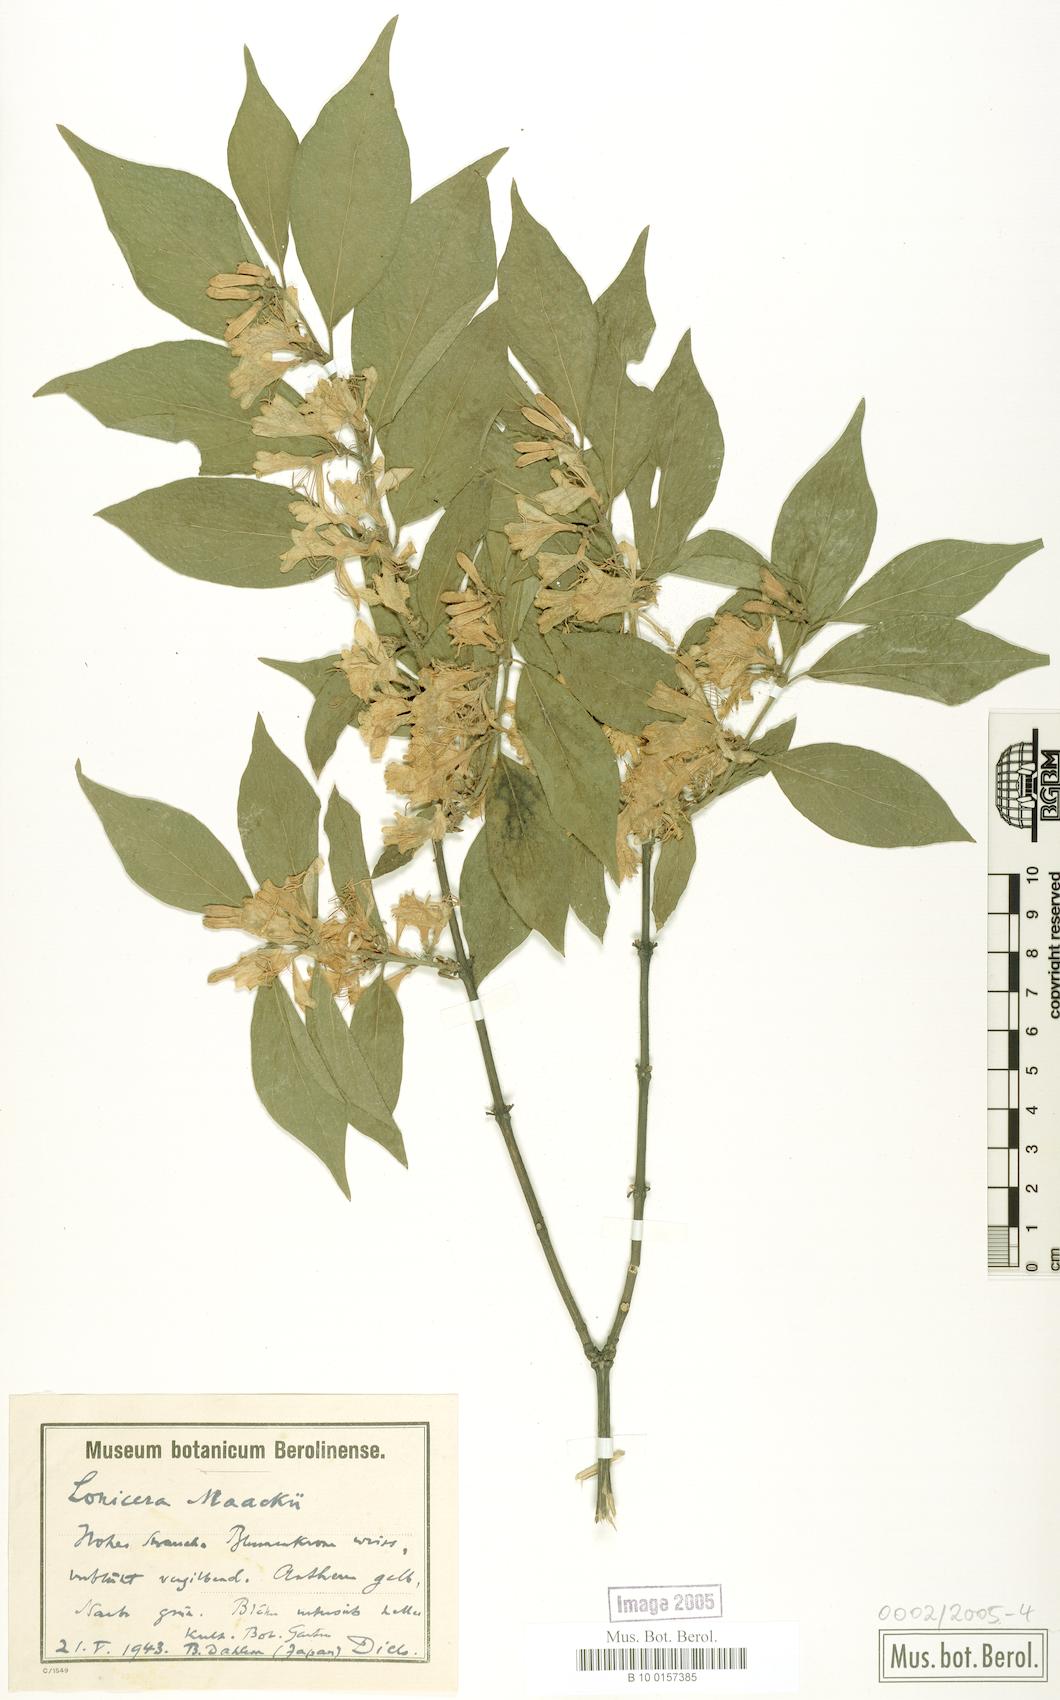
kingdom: Plantae
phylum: Tracheophyta
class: Magnoliopsida
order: Dipsacales
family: Caprifoliaceae
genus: Lonicera
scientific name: Lonicera maackii
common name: Amur honeysuckle
